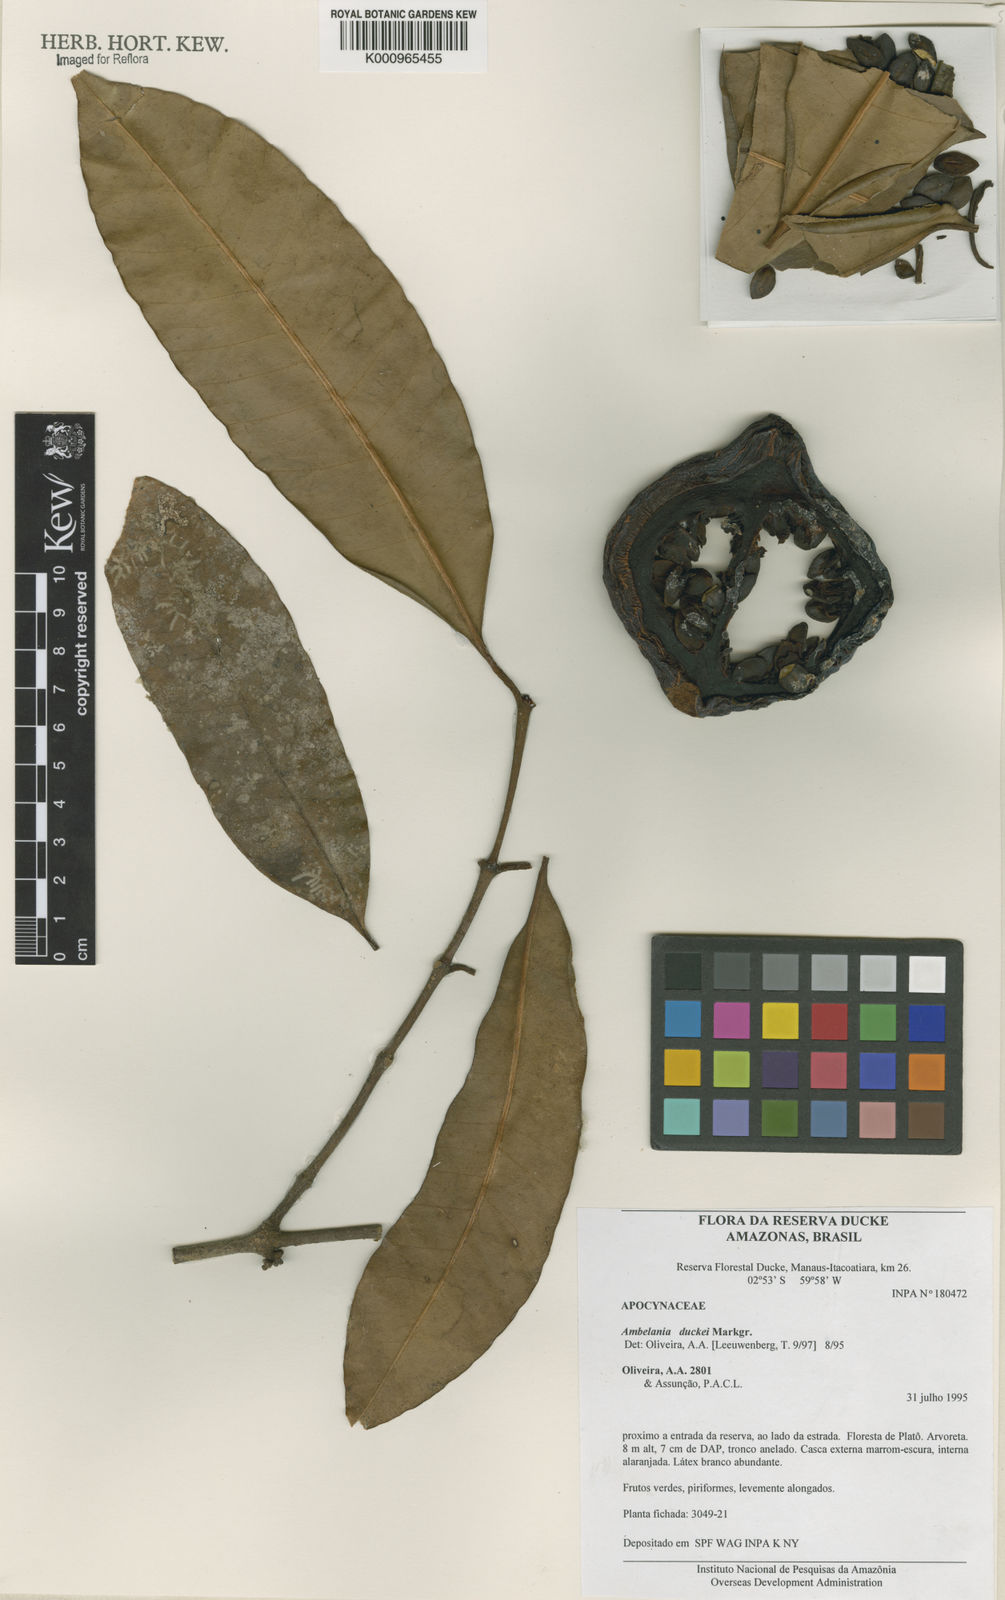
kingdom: Plantae
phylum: Tracheophyta
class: Magnoliopsida
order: Gentianales
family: Apocynaceae
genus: Ambelania
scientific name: Ambelania duckei
